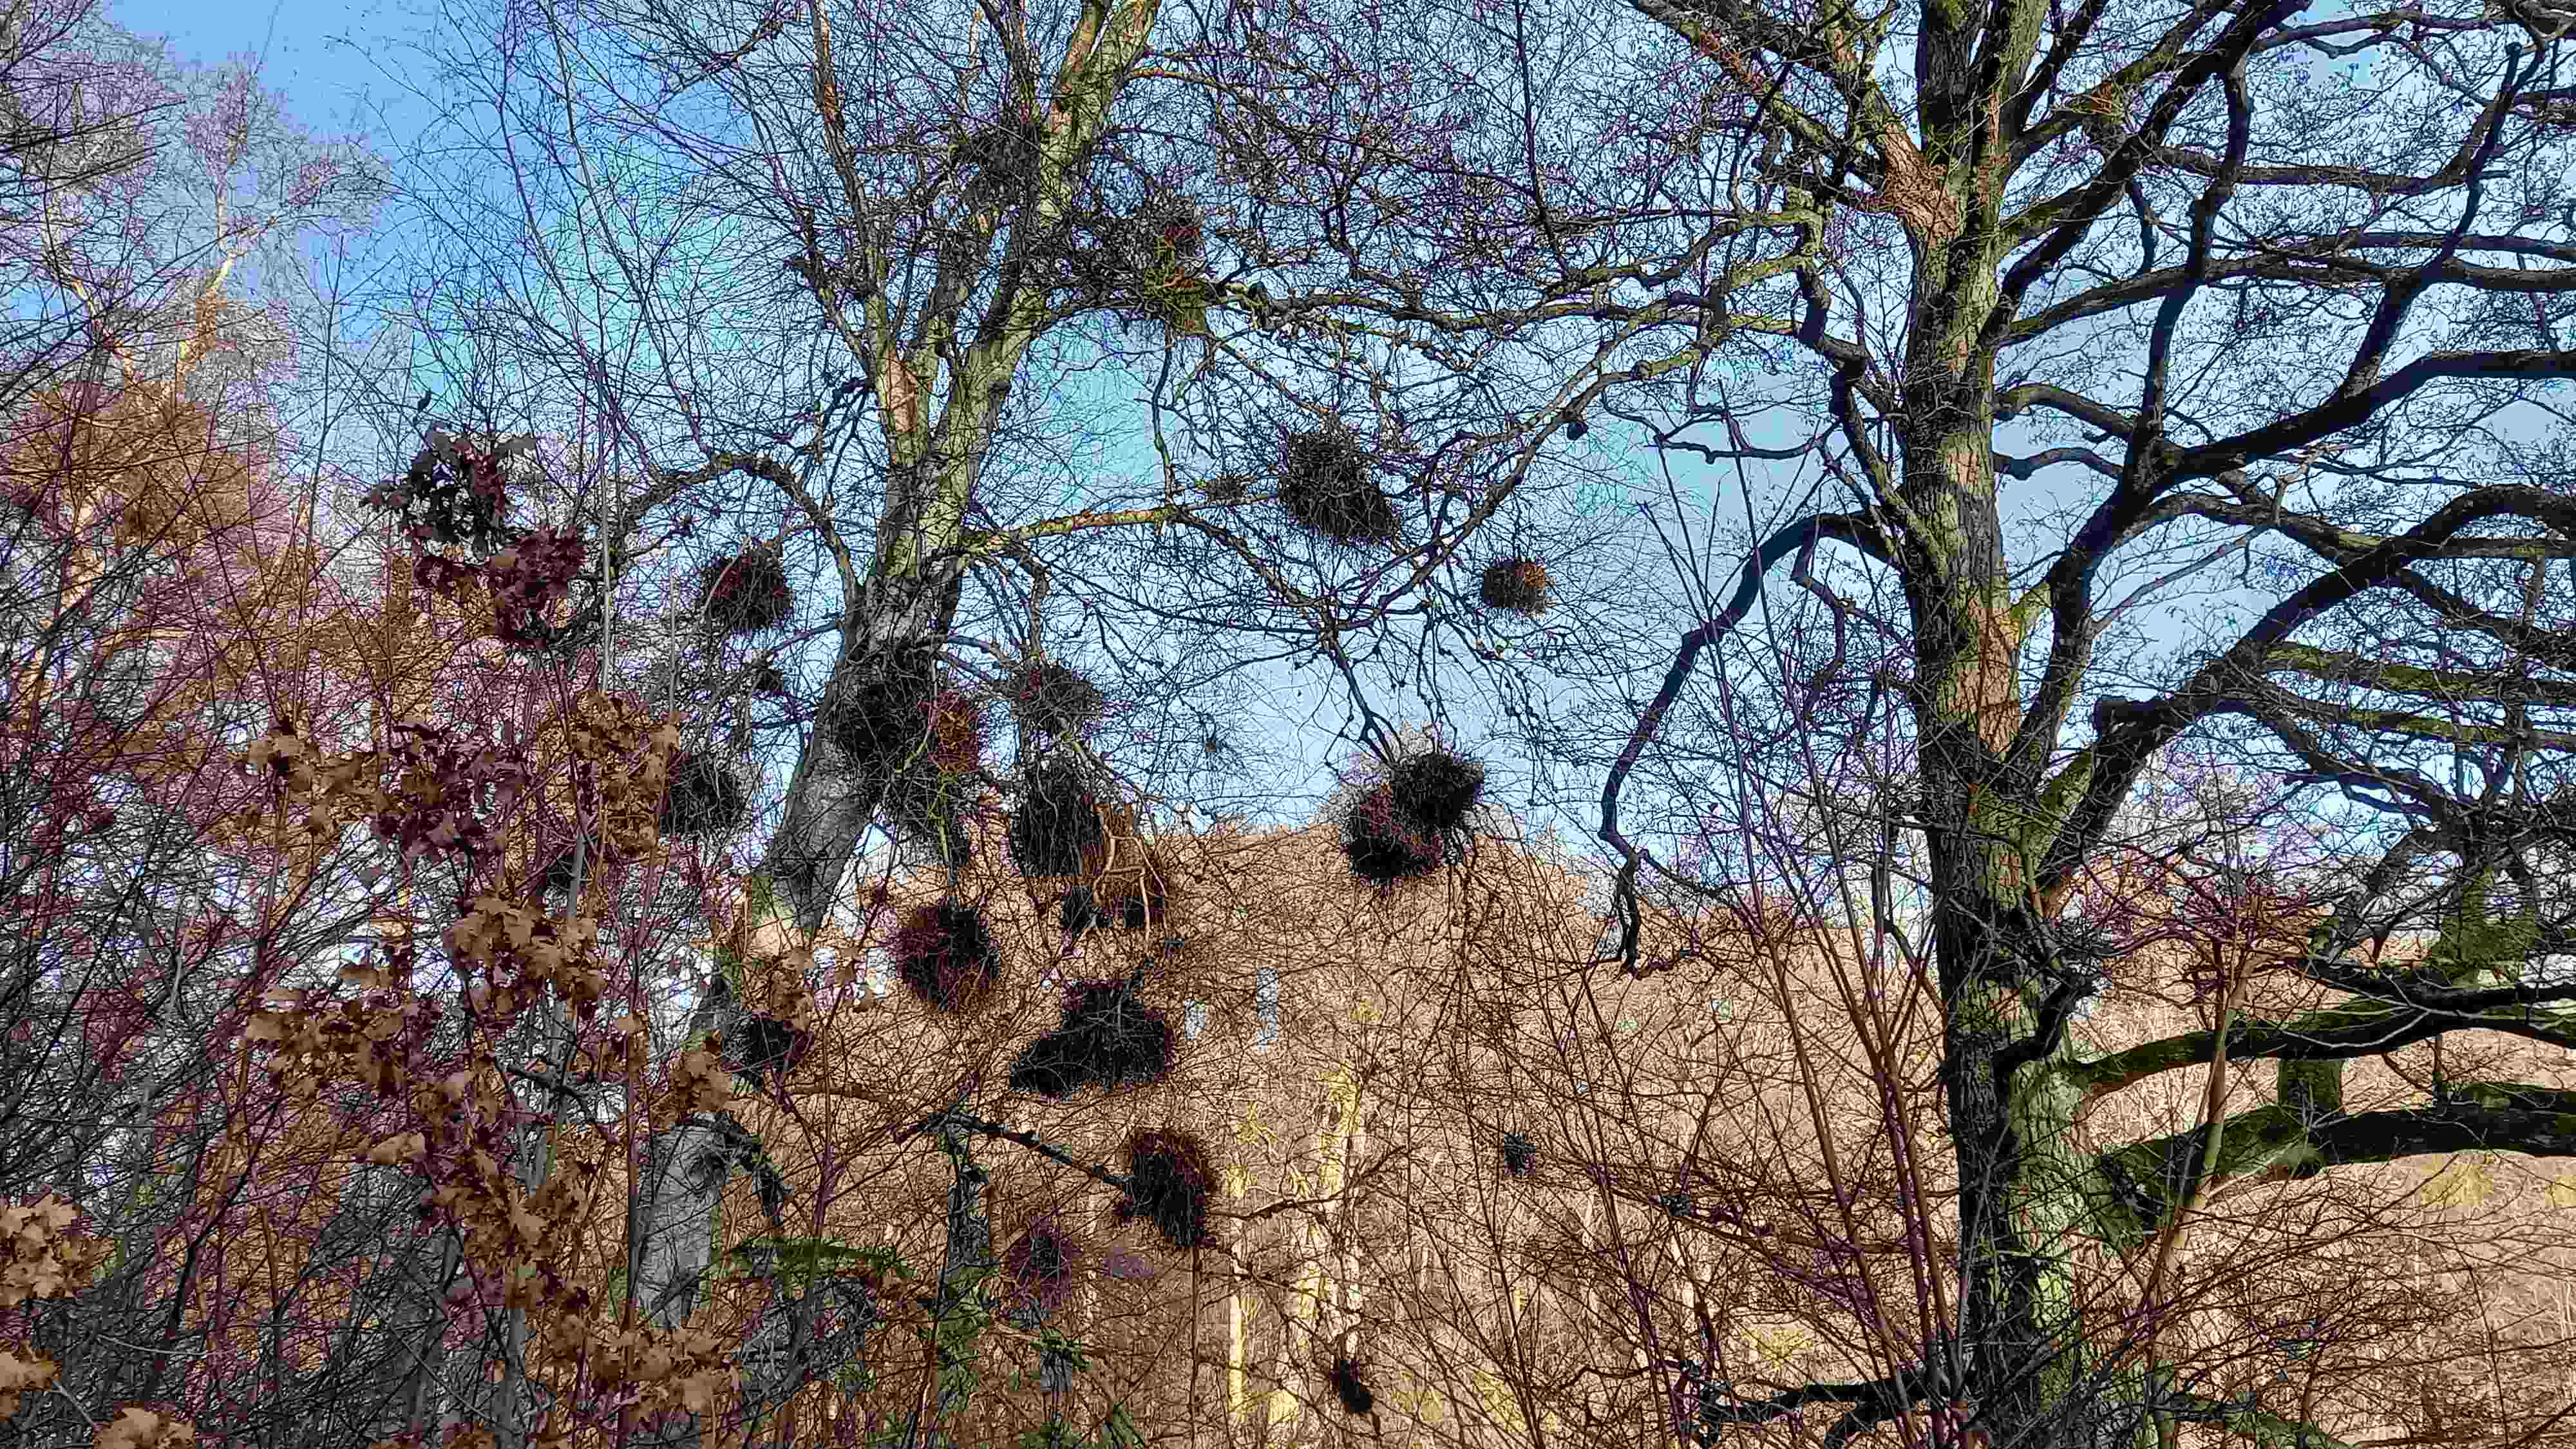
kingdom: Fungi
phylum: Ascomycota
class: Taphrinomycetes
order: Taphrinales
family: Taphrinaceae
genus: Taphrina
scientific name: Taphrina betulina
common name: hekse-sækdug
